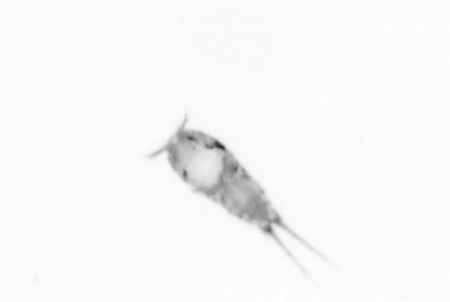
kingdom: Animalia
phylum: Arthropoda
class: Copepoda
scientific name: Copepoda
